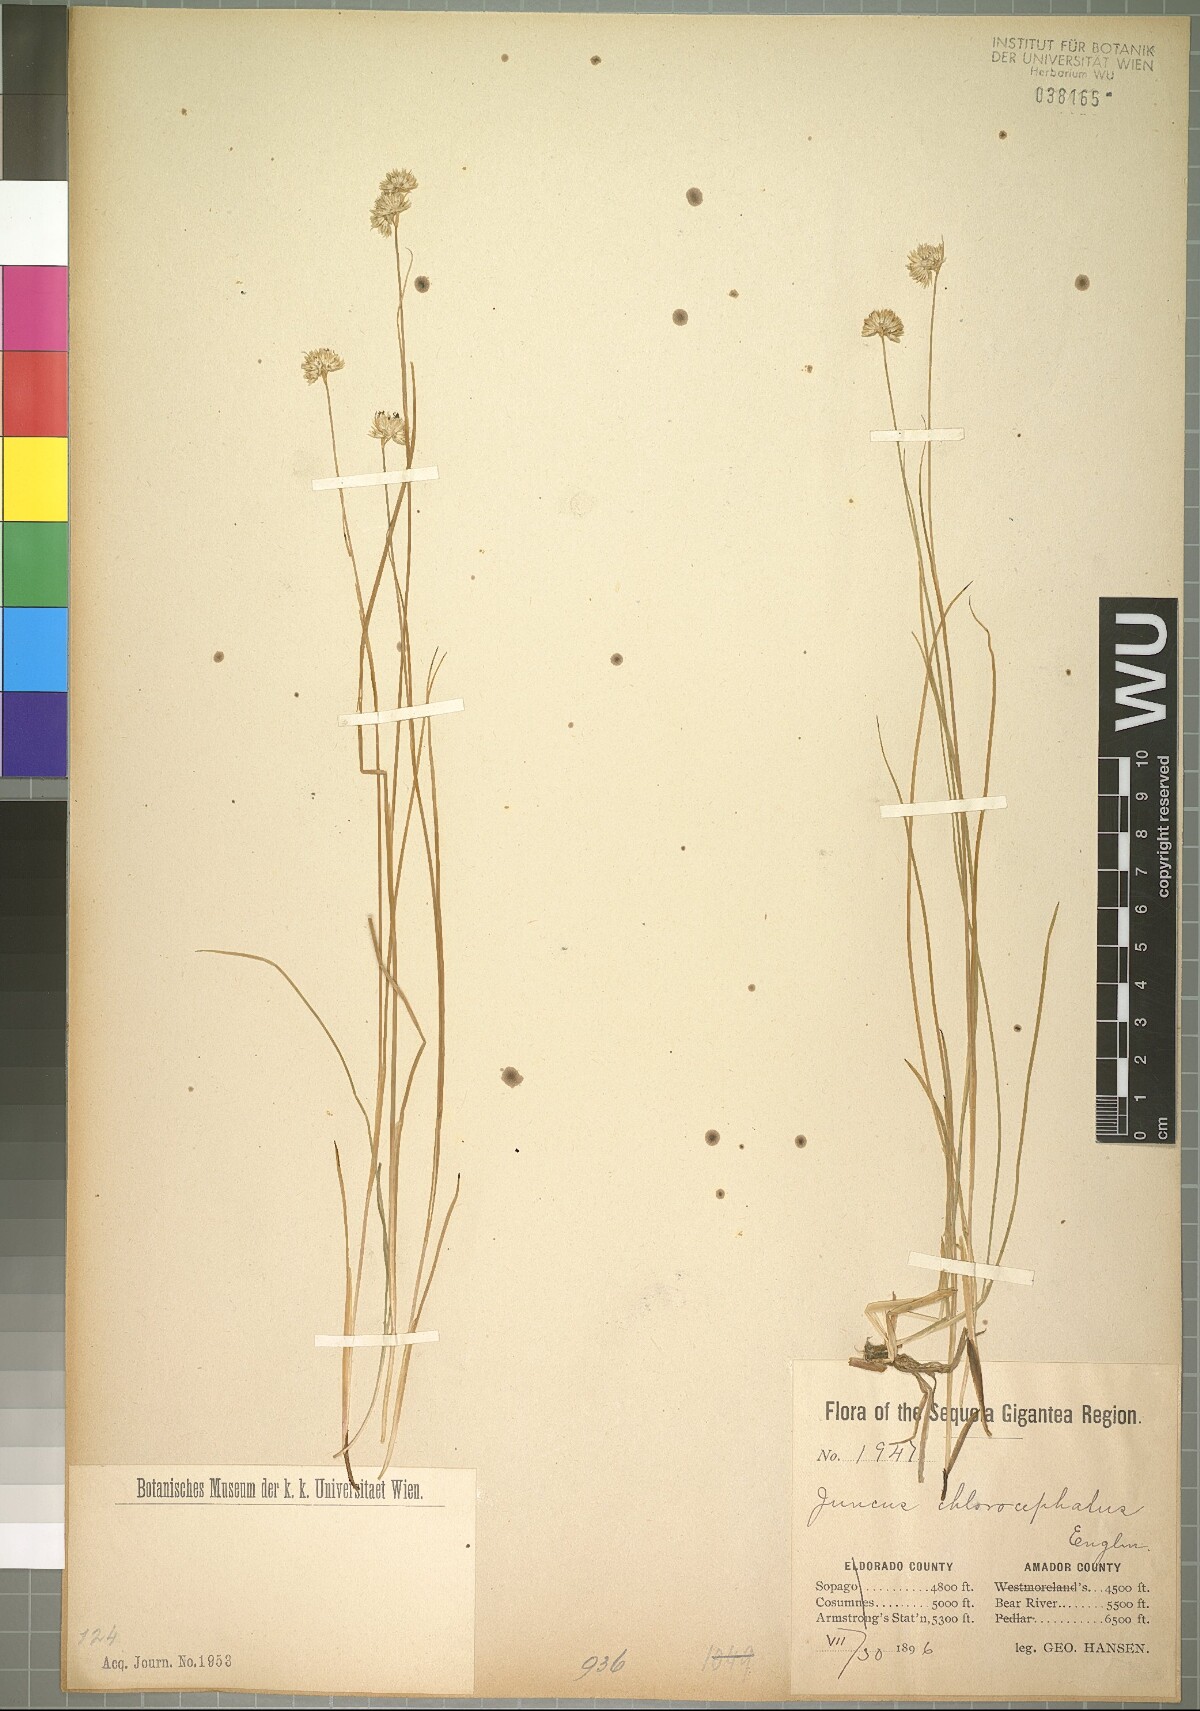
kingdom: Plantae
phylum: Tracheophyta
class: Liliopsida
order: Poales
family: Juncaceae
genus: Juncus
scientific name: Juncus chlorocephalus
